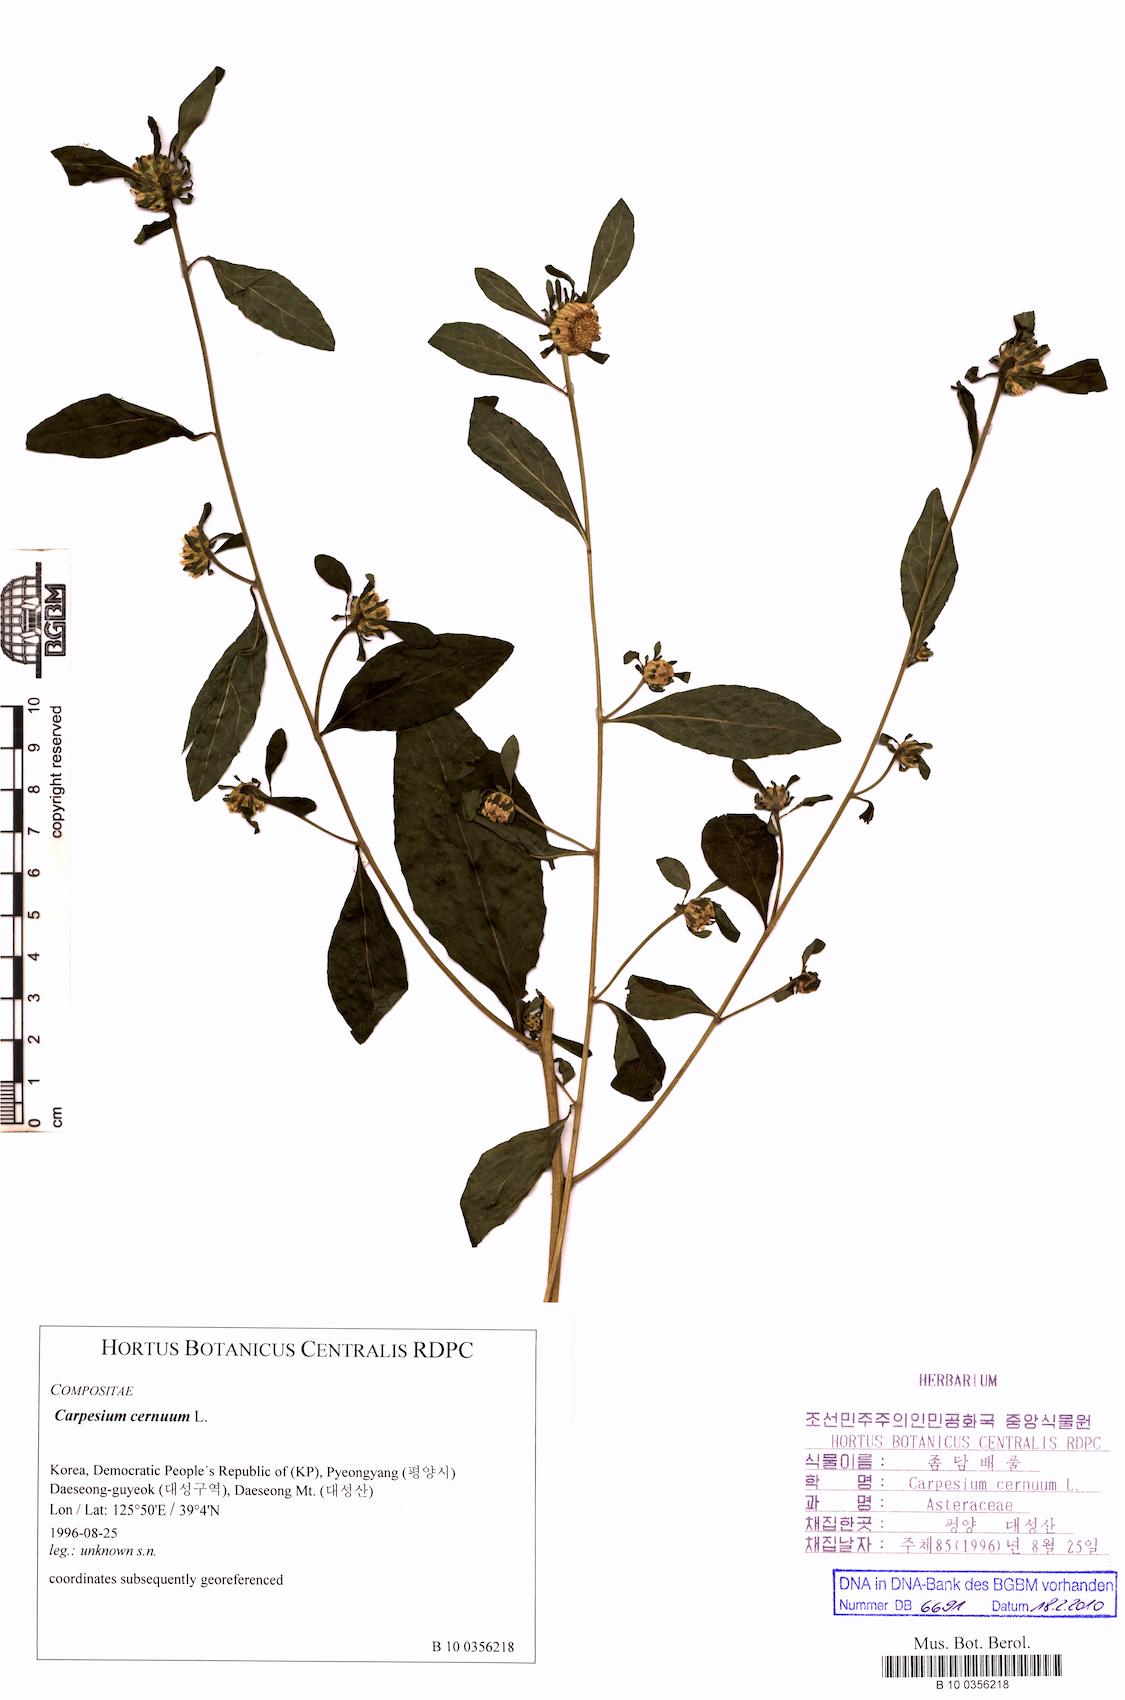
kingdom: Plantae
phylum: Tracheophyta
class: Magnoliopsida
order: Asterales
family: Asteraceae
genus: Carpesium
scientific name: Carpesium cernuum
